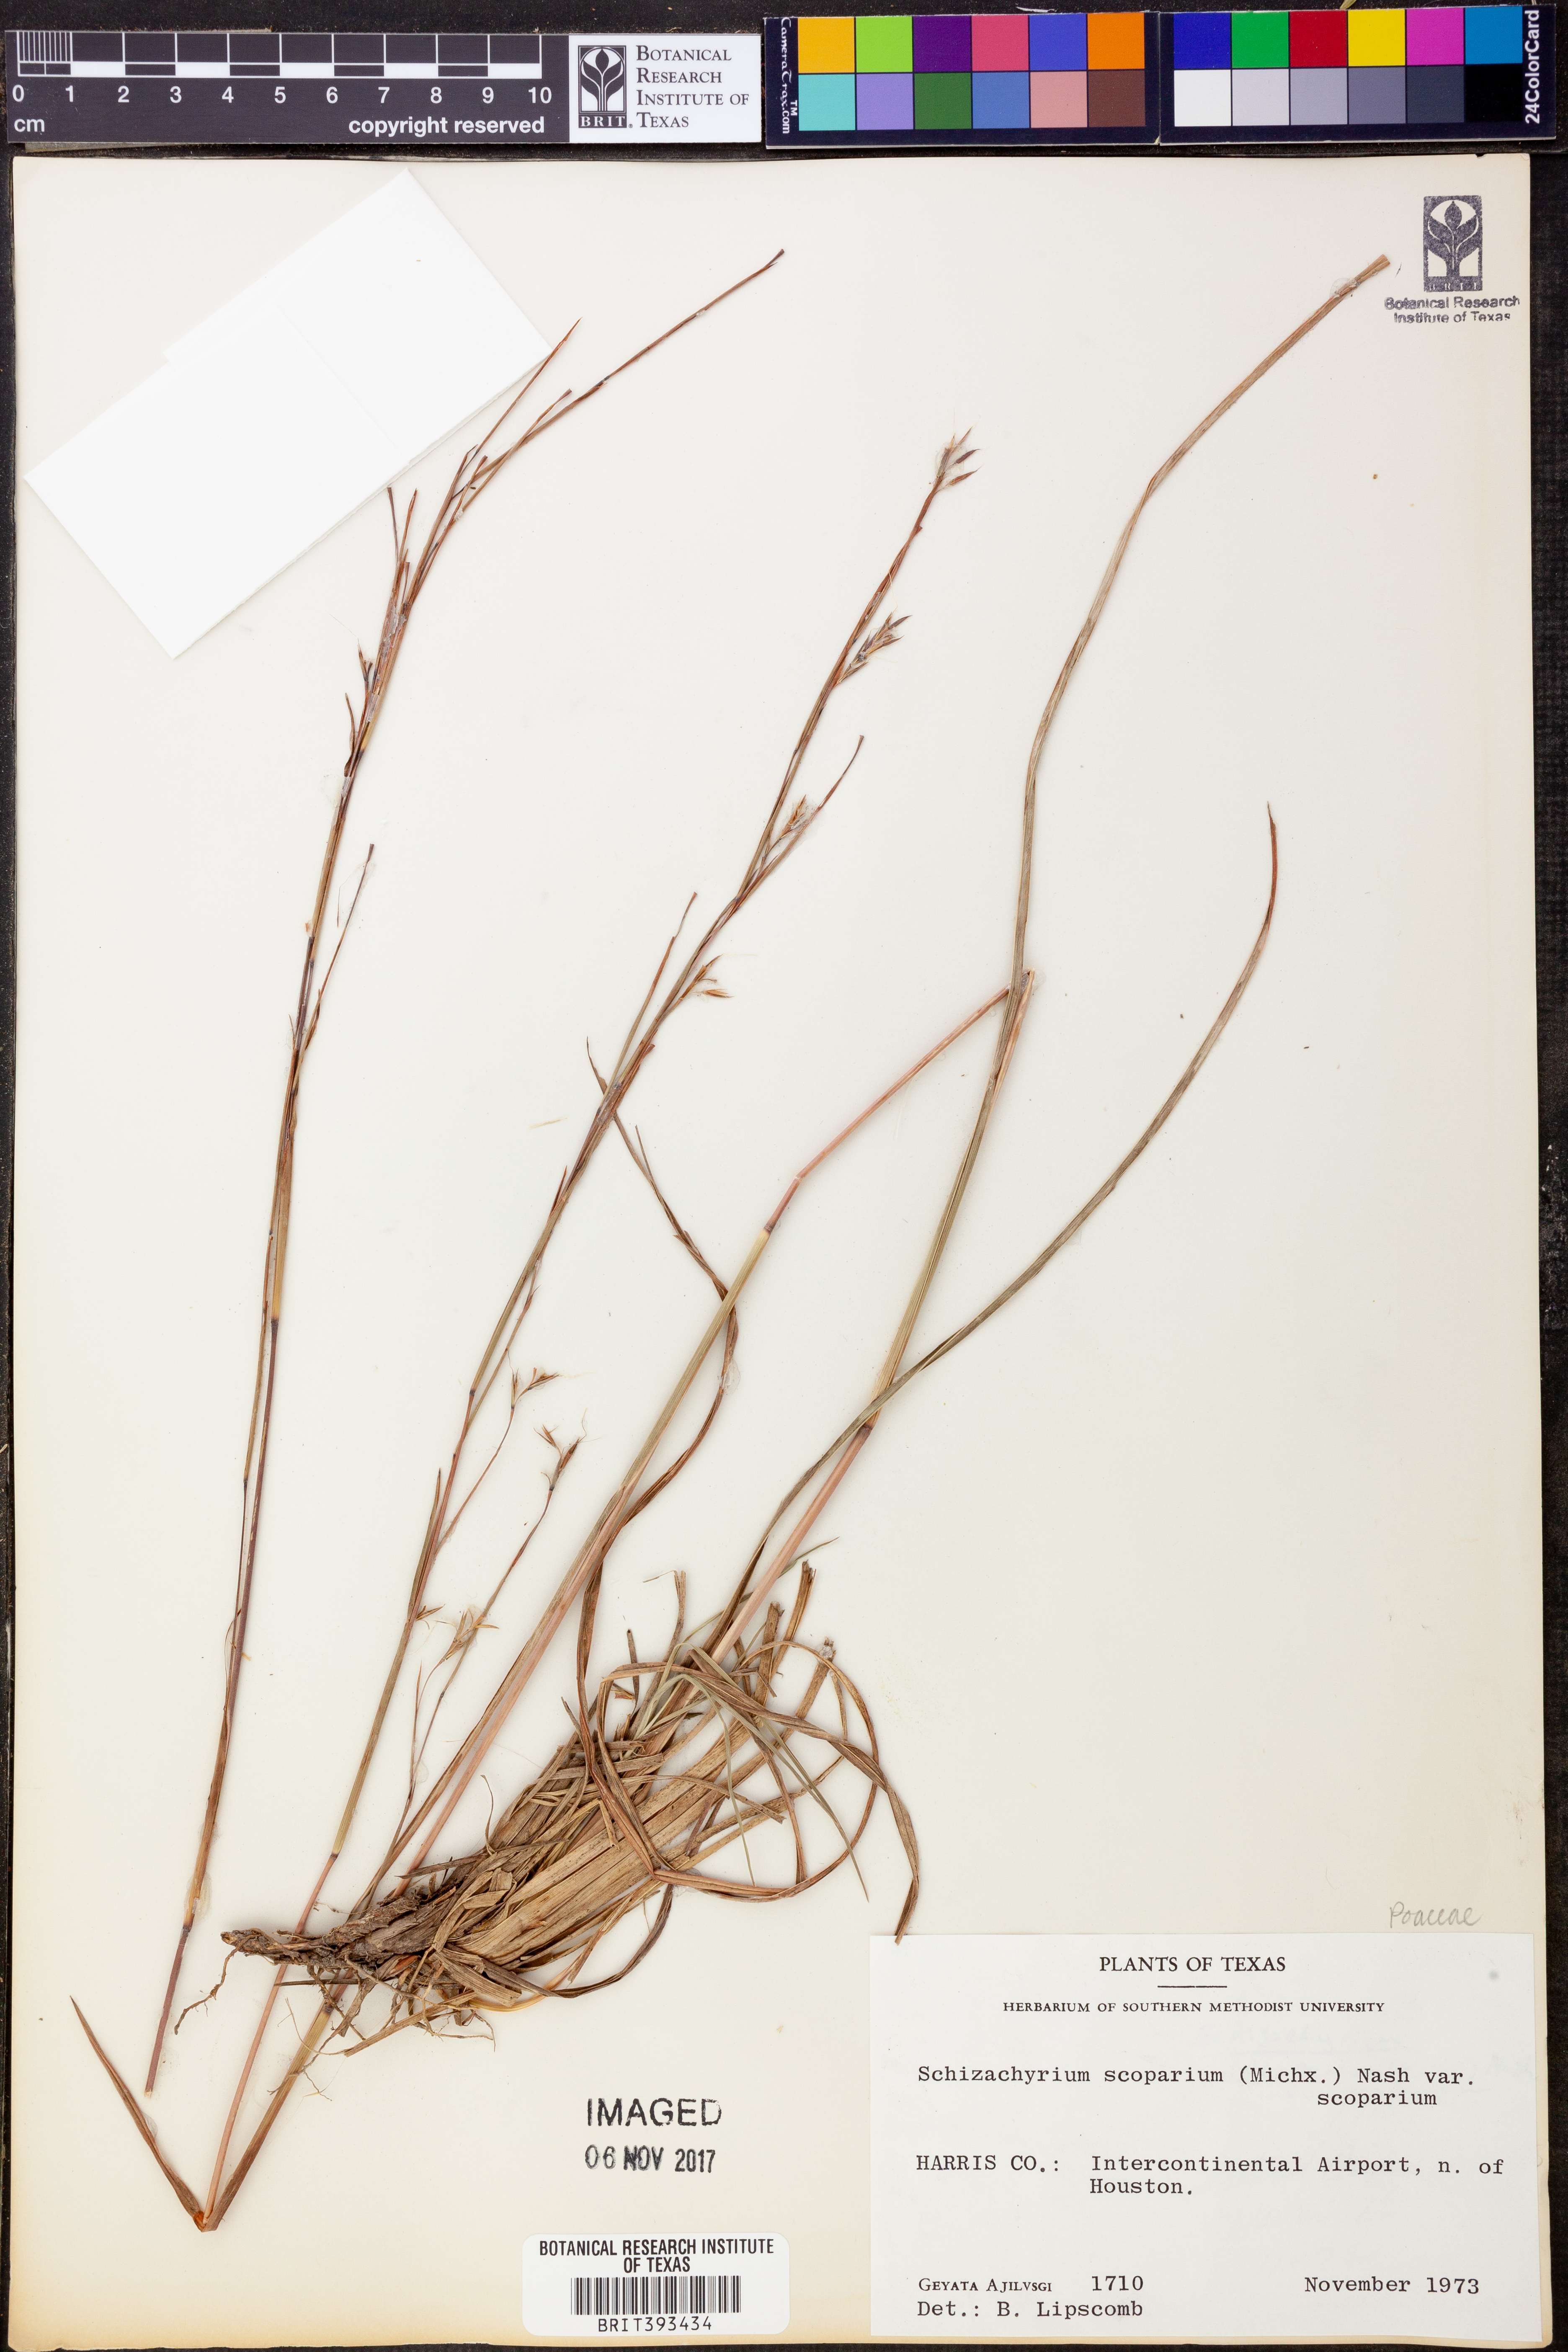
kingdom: Plantae
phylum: Tracheophyta
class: Liliopsida
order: Poales
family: Poaceae
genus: Schizachyrium
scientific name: Schizachyrium scoparium
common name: Little bluestem
